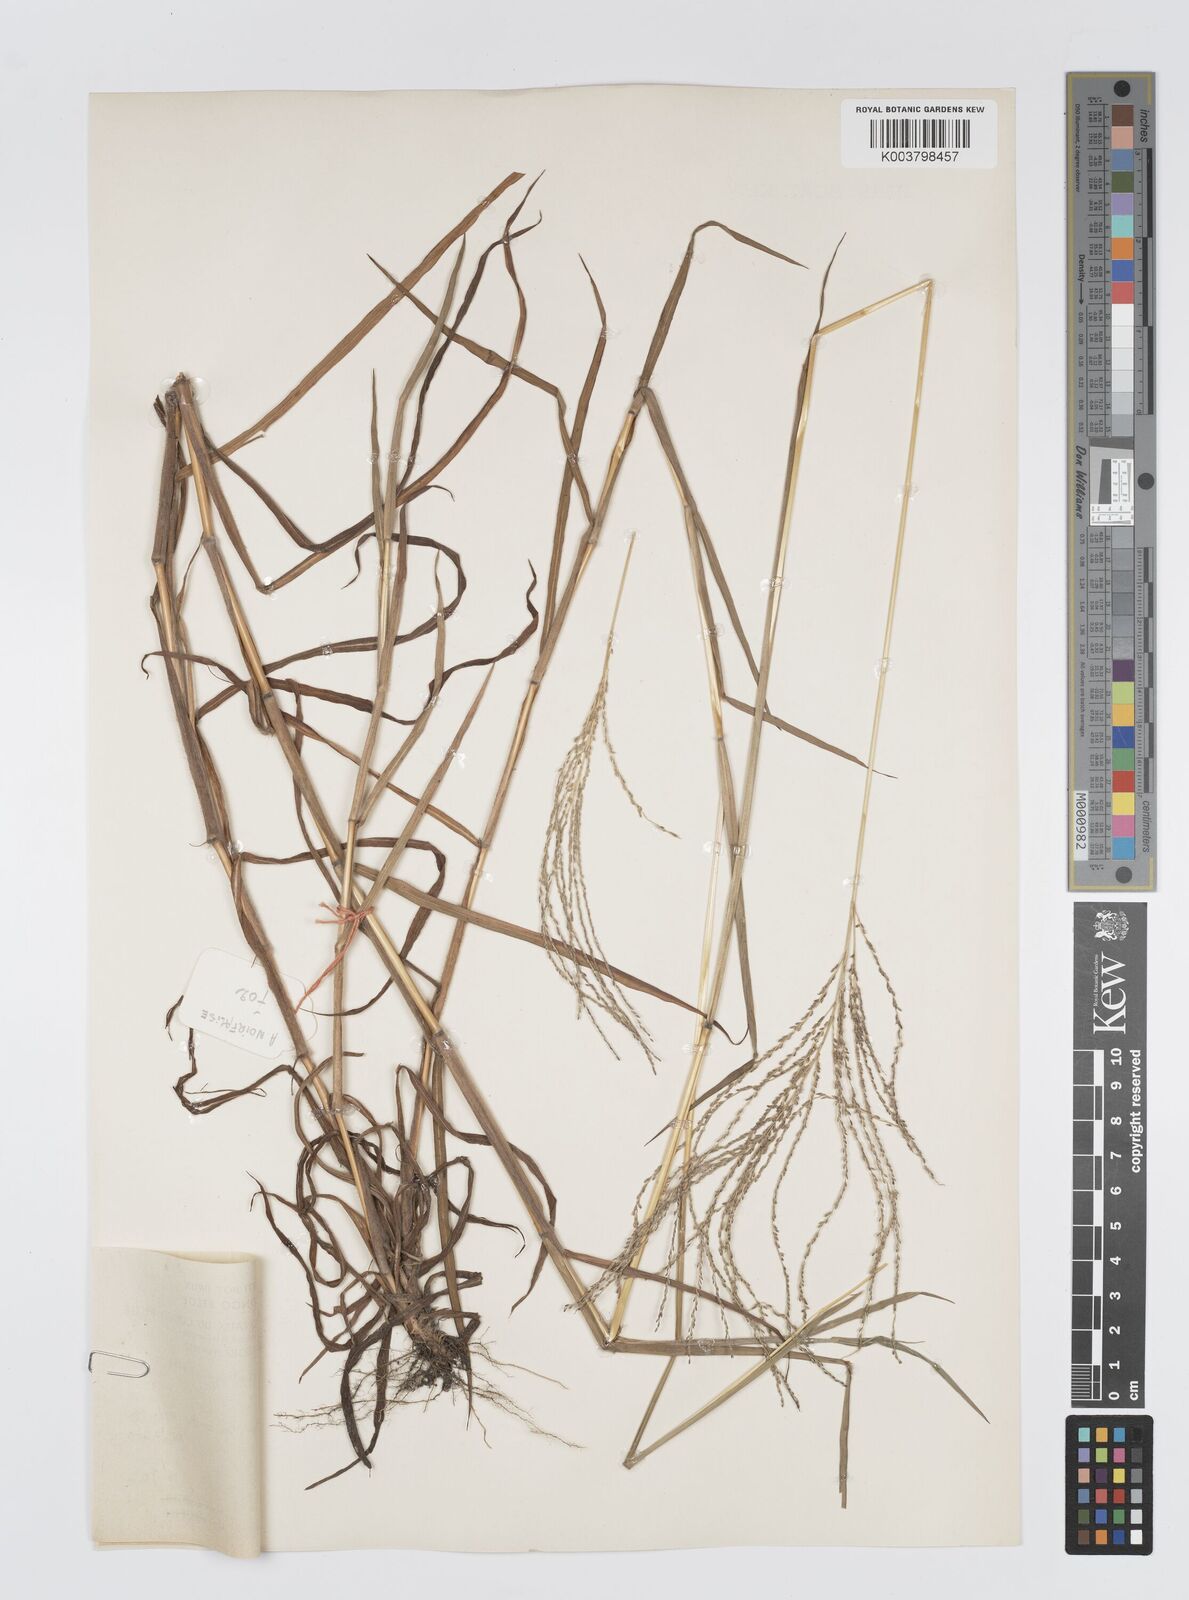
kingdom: Plantae
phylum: Tracheophyta
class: Liliopsida
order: Poales
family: Poaceae
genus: Digitaria
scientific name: Digitaria leptorhachis
